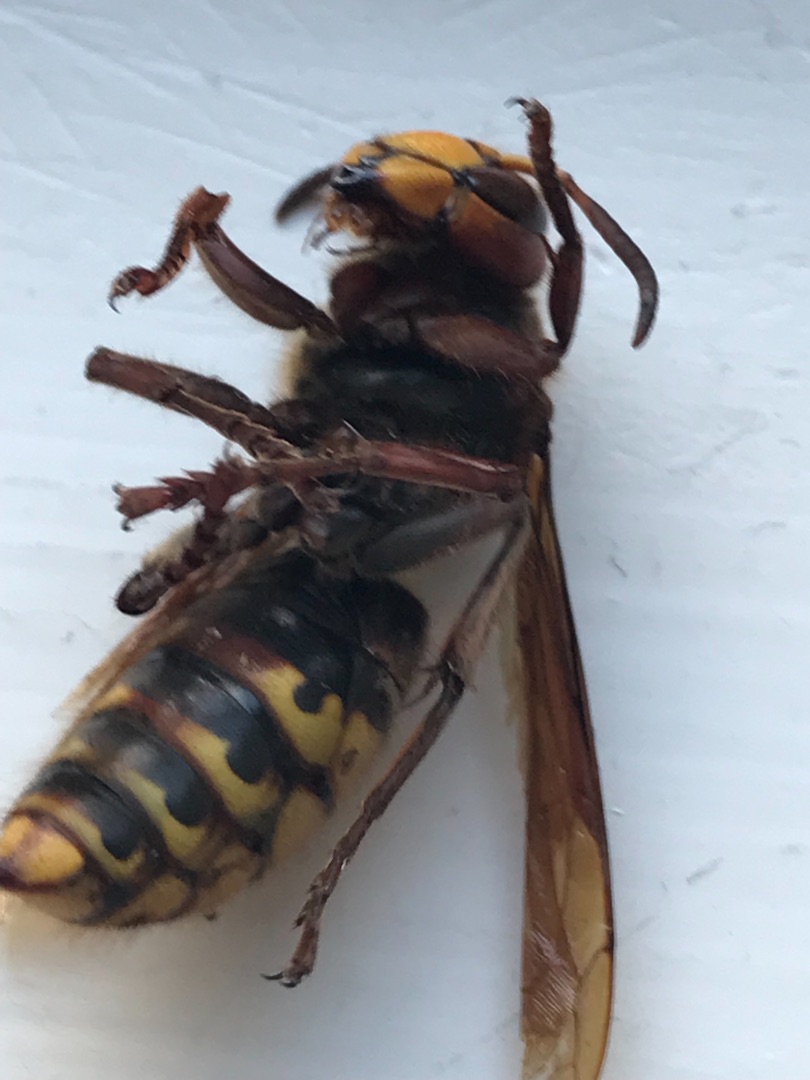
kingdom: Animalia
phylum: Arthropoda
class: Insecta
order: Hymenoptera
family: Vespidae
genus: Vespa
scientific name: Vespa crabro
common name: Stor gedehams
